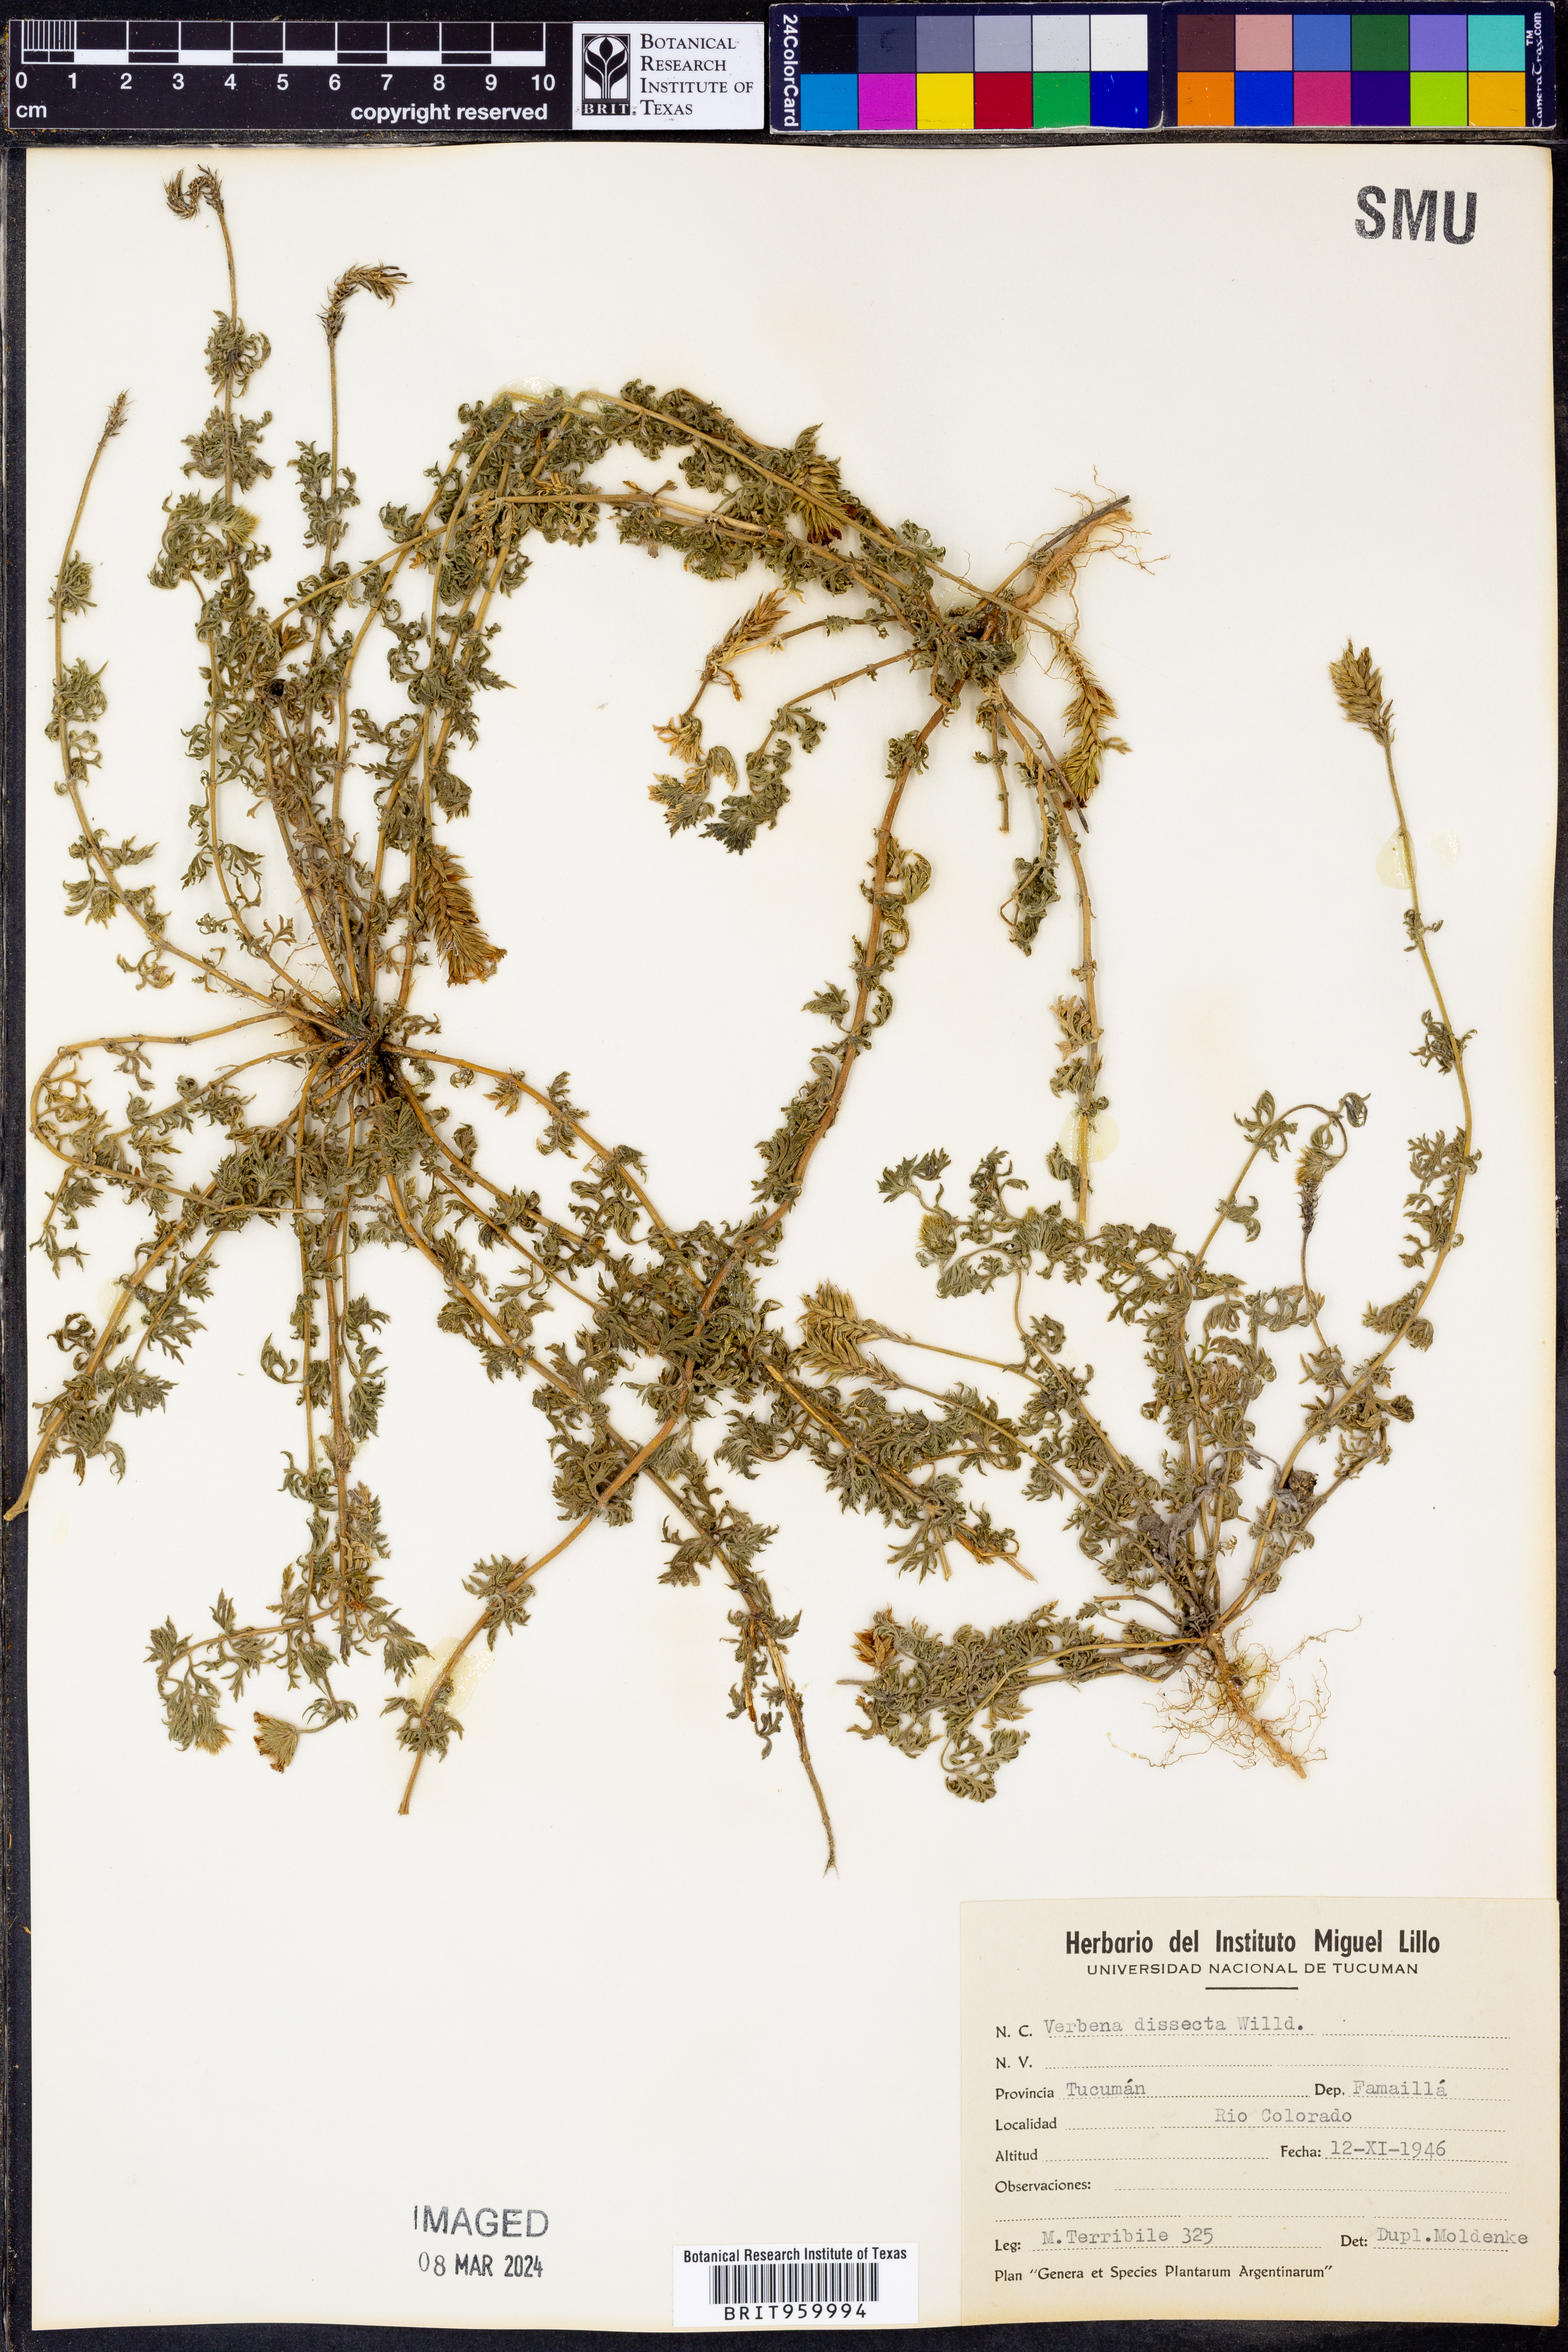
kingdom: Plantae
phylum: Tracheophyta
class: Magnoliopsida
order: Lamiales
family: Verbenaceae
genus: Verbena
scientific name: Verbena
